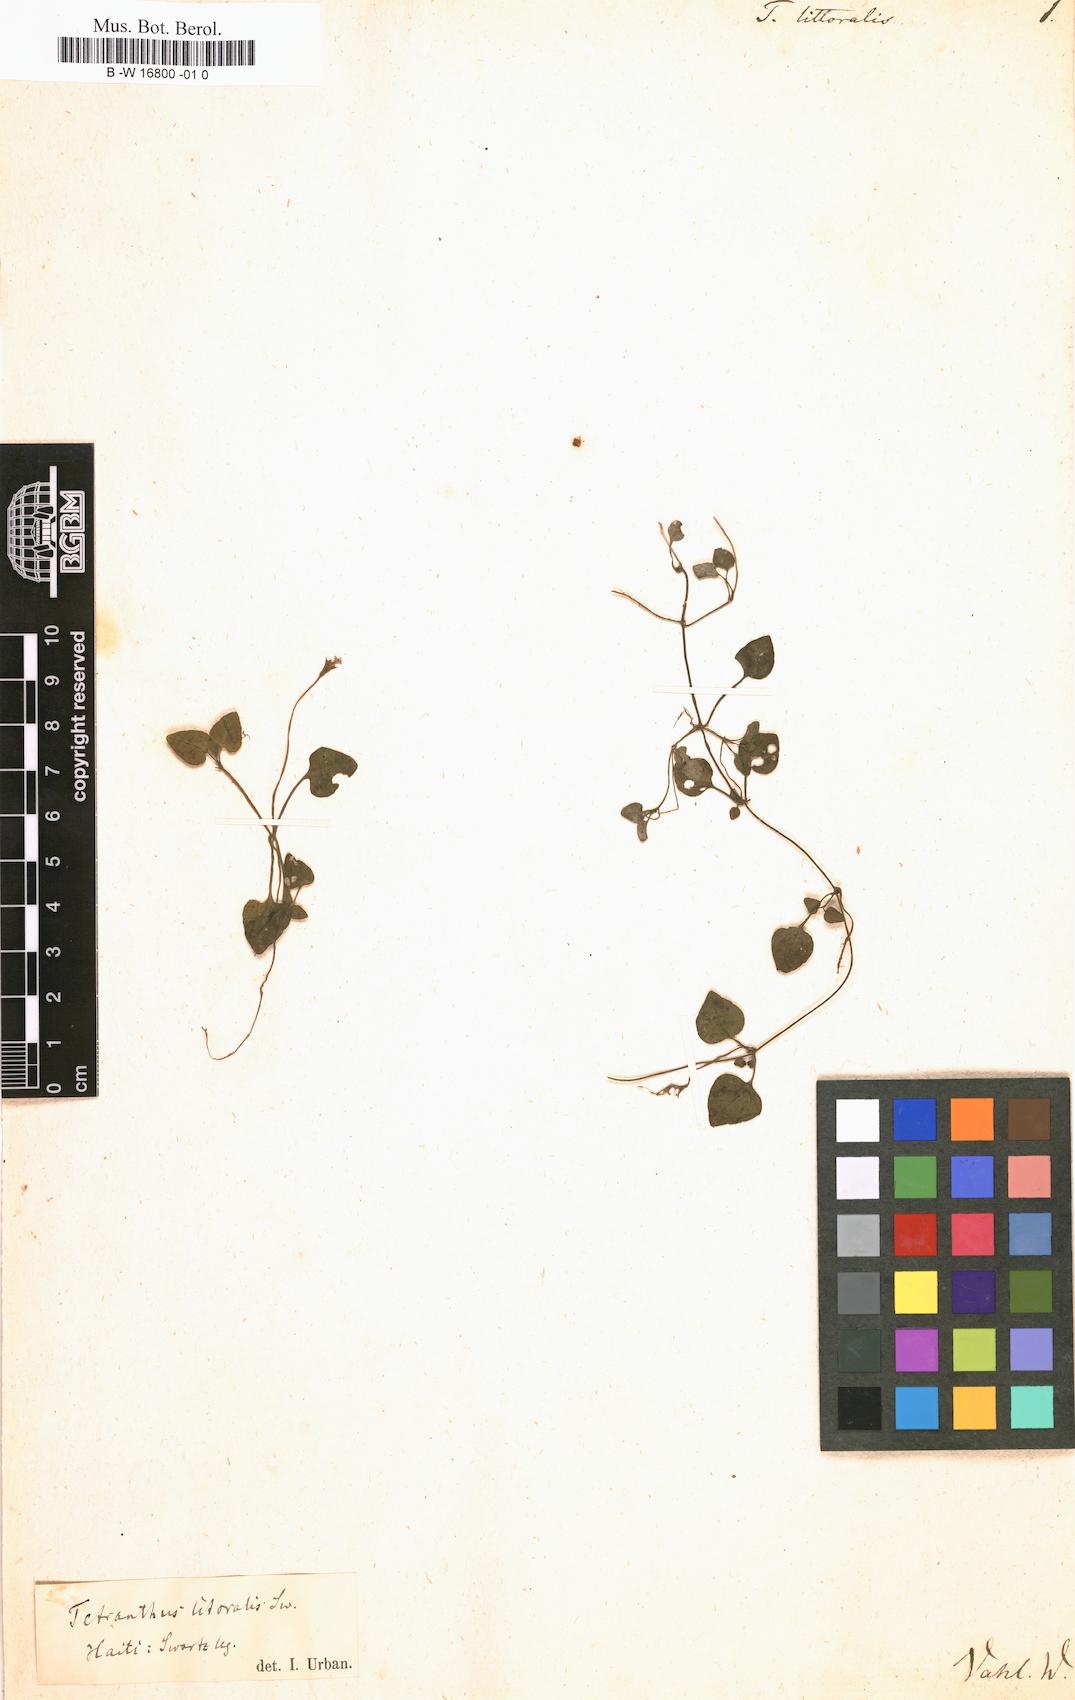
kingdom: Plantae
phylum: Tracheophyta
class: Magnoliopsida
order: Asterales
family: Asteraceae
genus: Tetranthus
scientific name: Tetranthus littoralis
